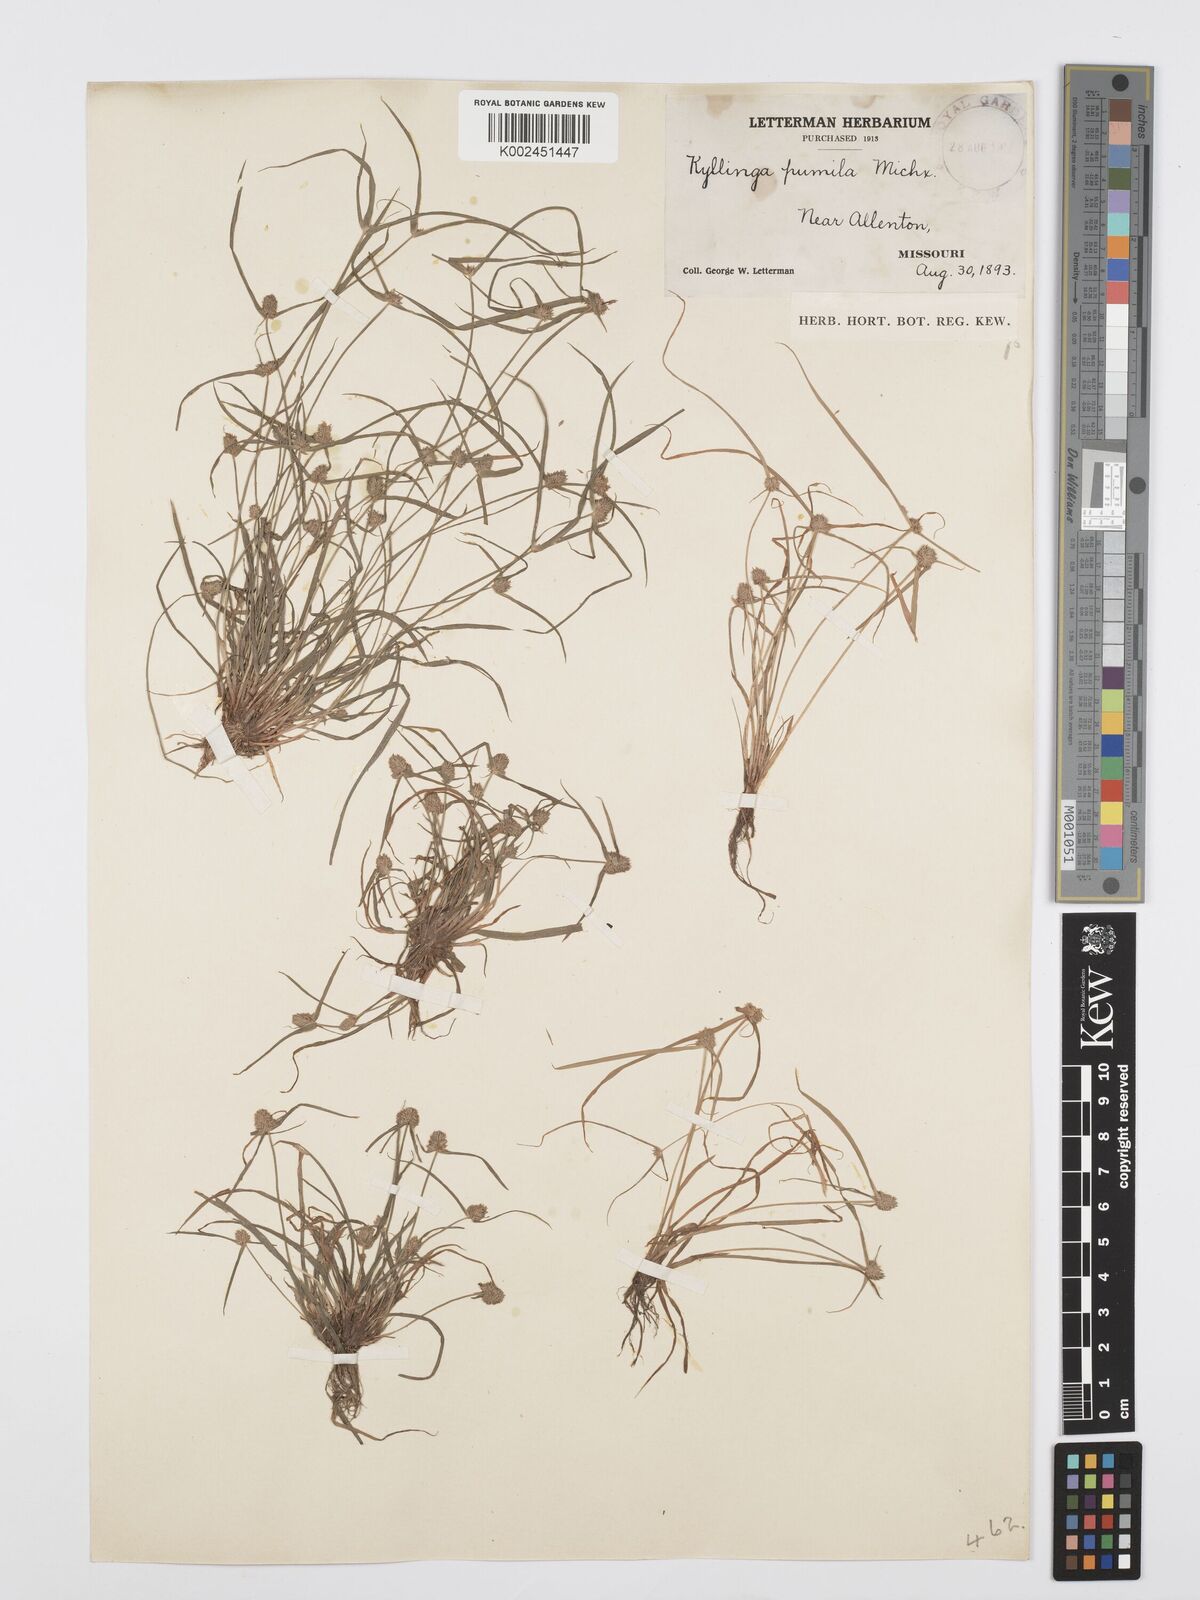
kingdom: Plantae
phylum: Tracheophyta
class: Liliopsida
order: Poales
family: Cyperaceae
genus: Cyperus
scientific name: Cyperus
